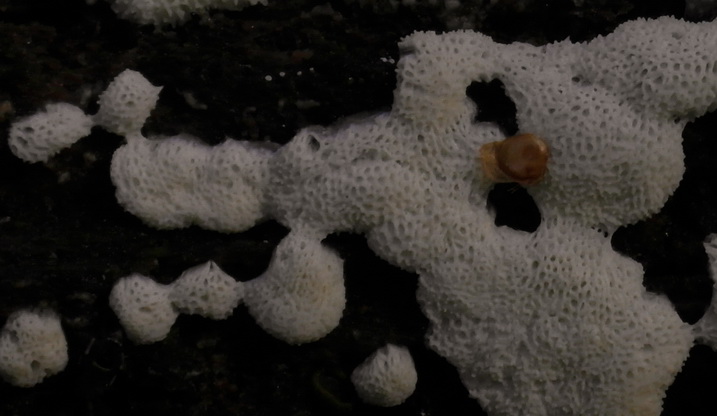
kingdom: Protozoa
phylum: Mycetozoa
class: Protosteliomycetes
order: Ceratiomyxales
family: Ceratiomyxaceae
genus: Ceratiomyxa
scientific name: Ceratiomyxa fruticulosa
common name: Honeycomb coral slime mold
